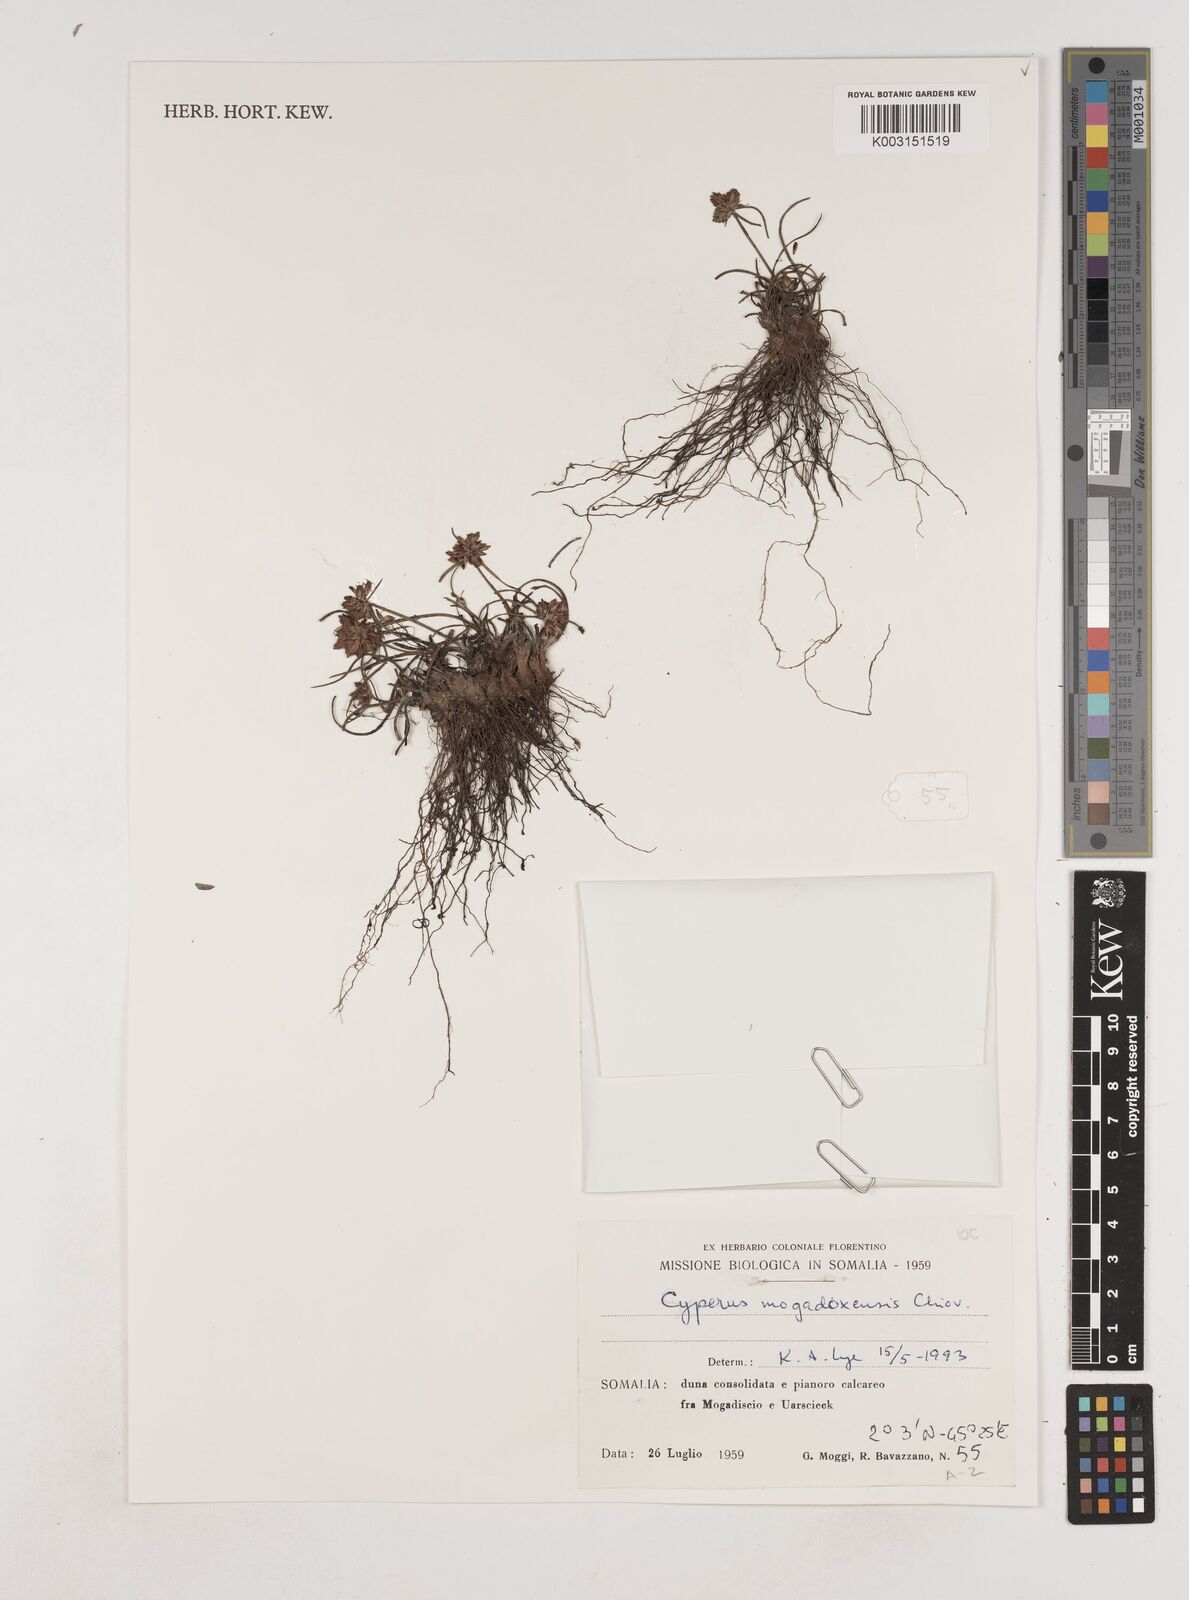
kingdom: Plantae
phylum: Tracheophyta
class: Liliopsida
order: Poales
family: Cyperaceae
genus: Cyperus
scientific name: Cyperus mogadoxensis
